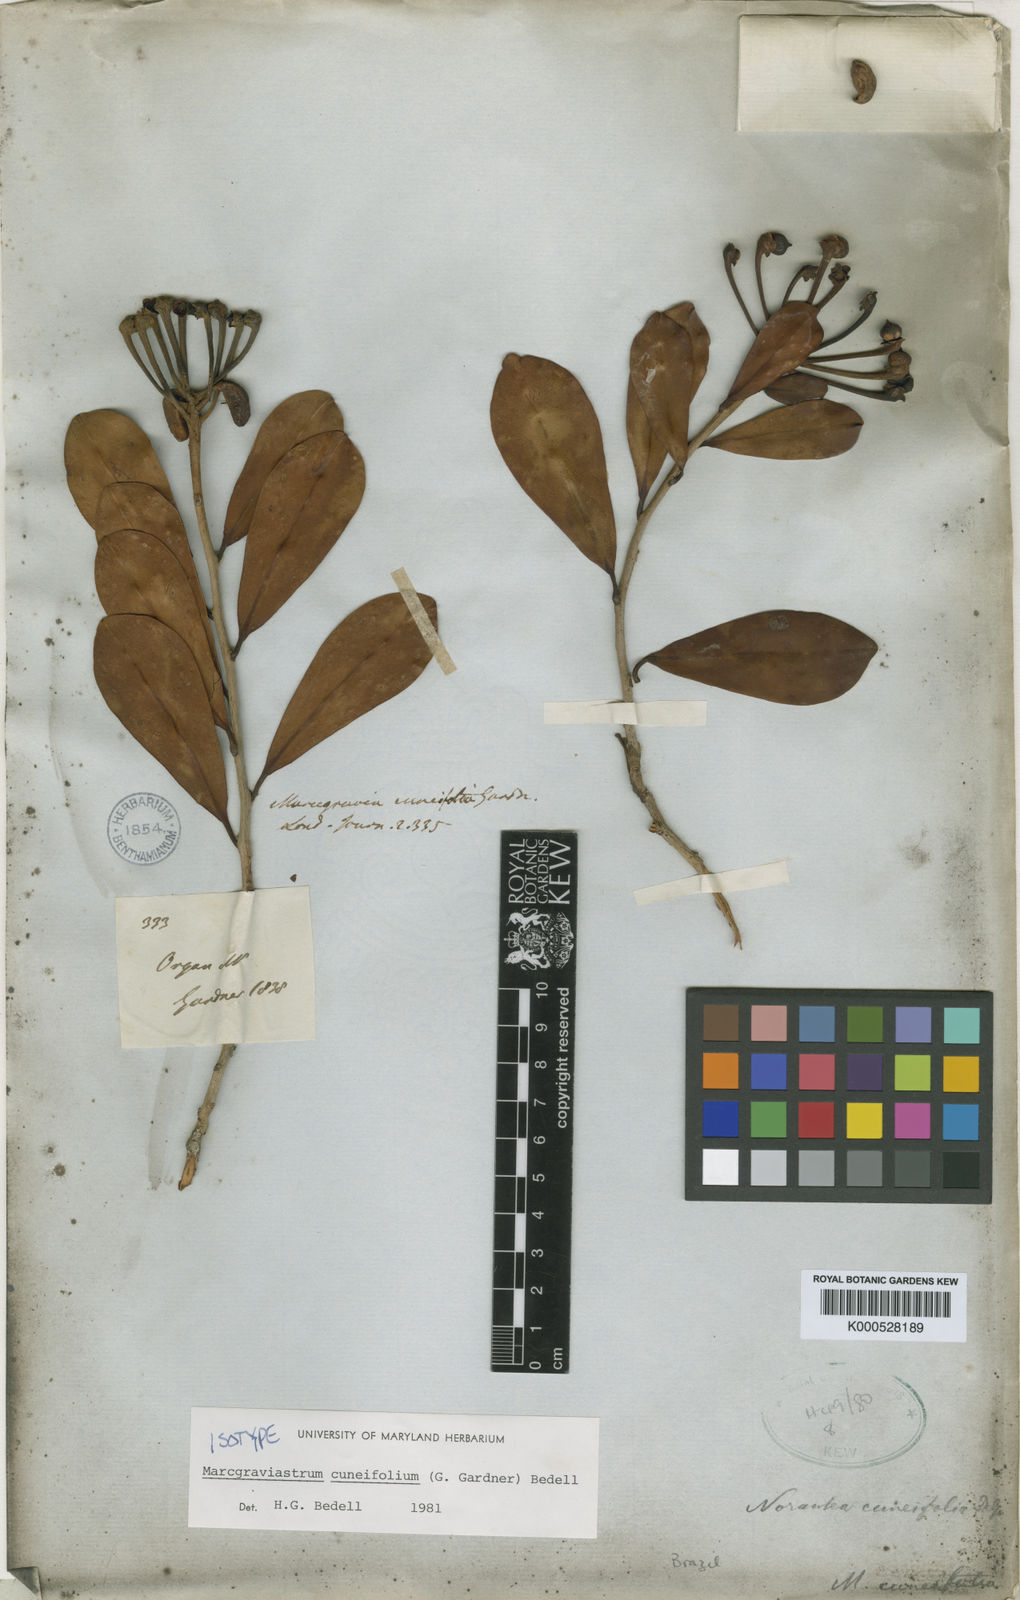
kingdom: Plantae
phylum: Tracheophyta
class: Magnoliopsida
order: Ericales
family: Marcgraviaceae
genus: Marcgraviastrum
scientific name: Marcgraviastrum cuneifolium
